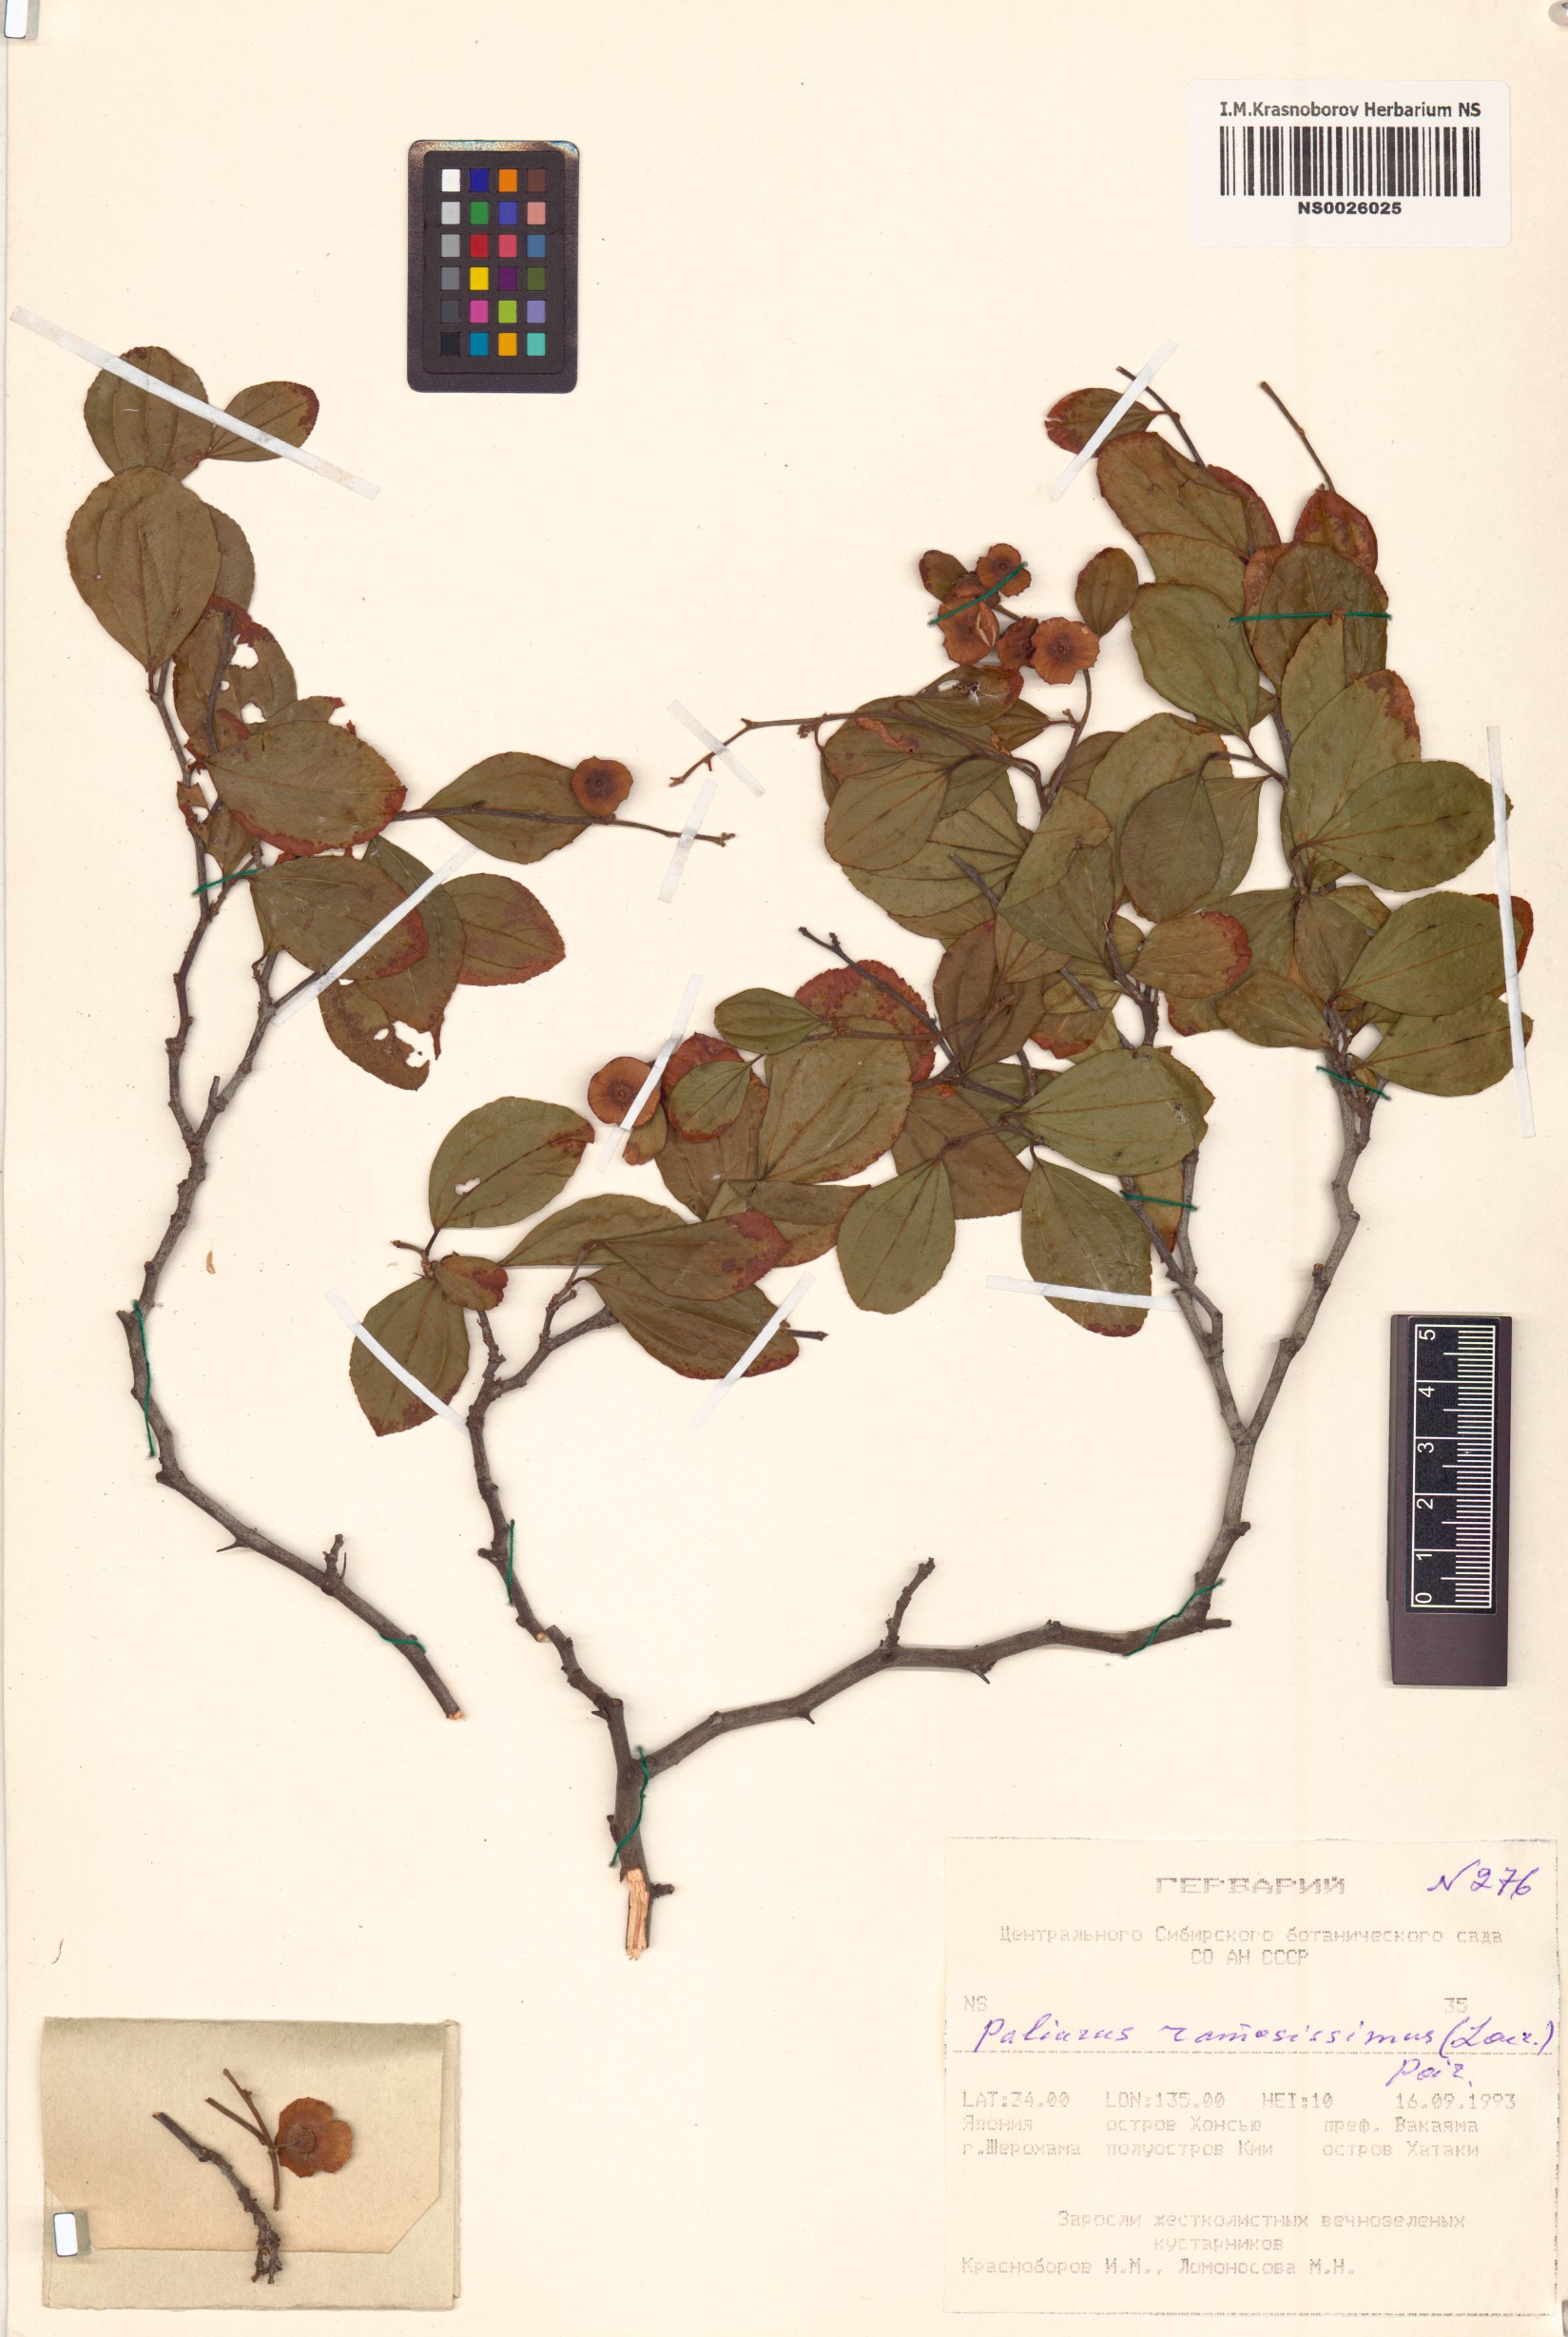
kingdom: Plantae
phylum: Tracheophyta
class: Magnoliopsida
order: Rosales
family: Rhamnaceae
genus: Paliurus
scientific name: Paliurus ramosissimus
